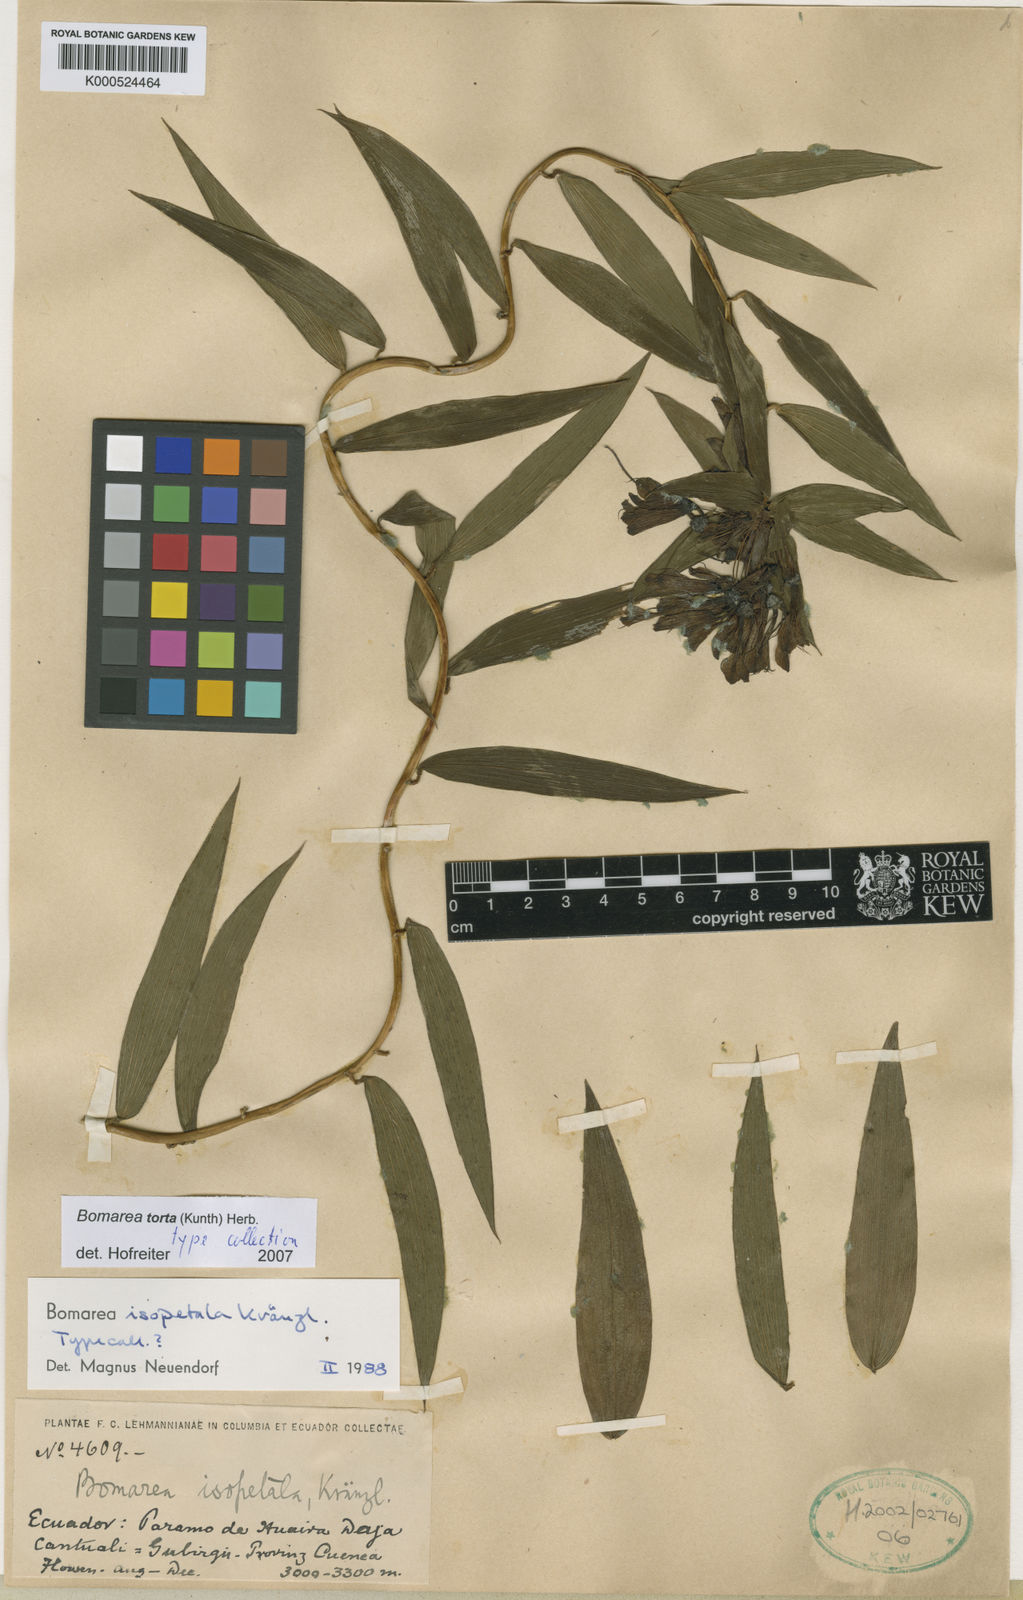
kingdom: Plantae
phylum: Tracheophyta
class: Liliopsida
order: Liliales
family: Alstroemeriaceae
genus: Bomarea
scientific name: Bomarea torta
